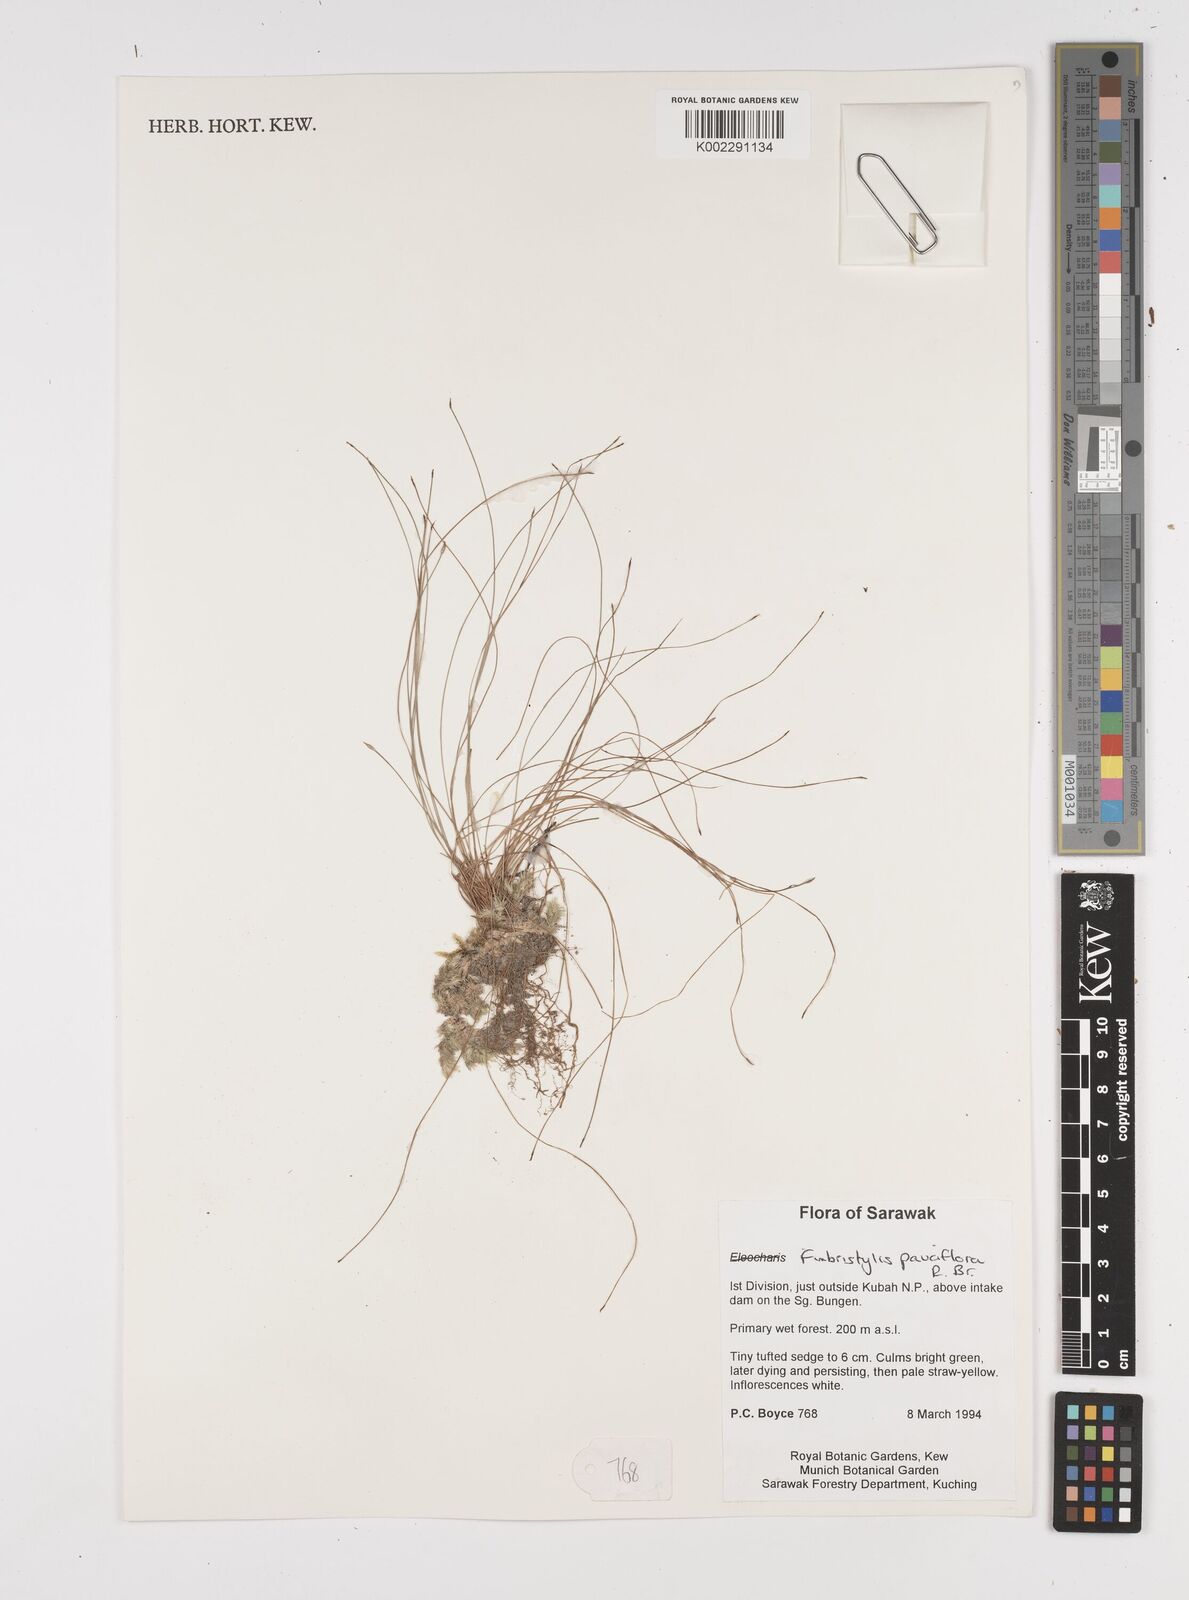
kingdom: Plantae
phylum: Tracheophyta
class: Liliopsida
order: Poales
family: Cyperaceae
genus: Fimbristylis
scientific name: Fimbristylis dichotoma
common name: Forked fimbry
